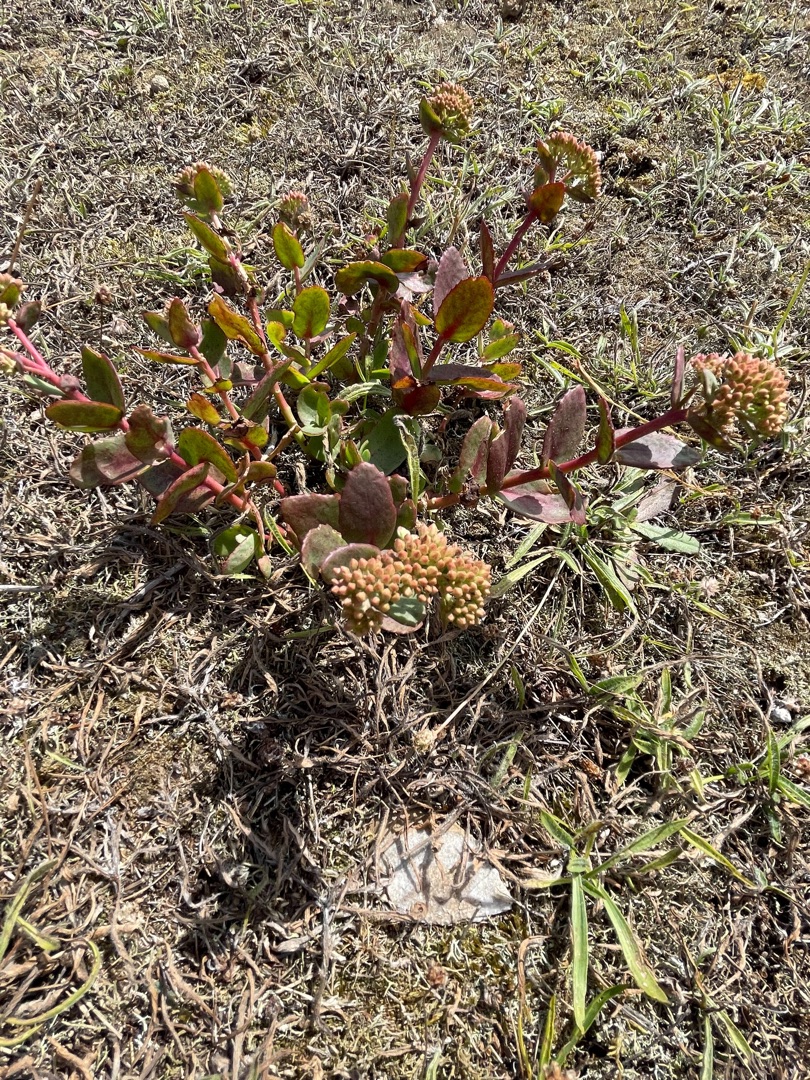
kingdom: Plantae
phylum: Tracheophyta
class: Magnoliopsida
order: Saxifragales
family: Crassulaceae
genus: Hylotelephium
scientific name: Hylotelephium maximum
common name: Almindelig sankthansurt
